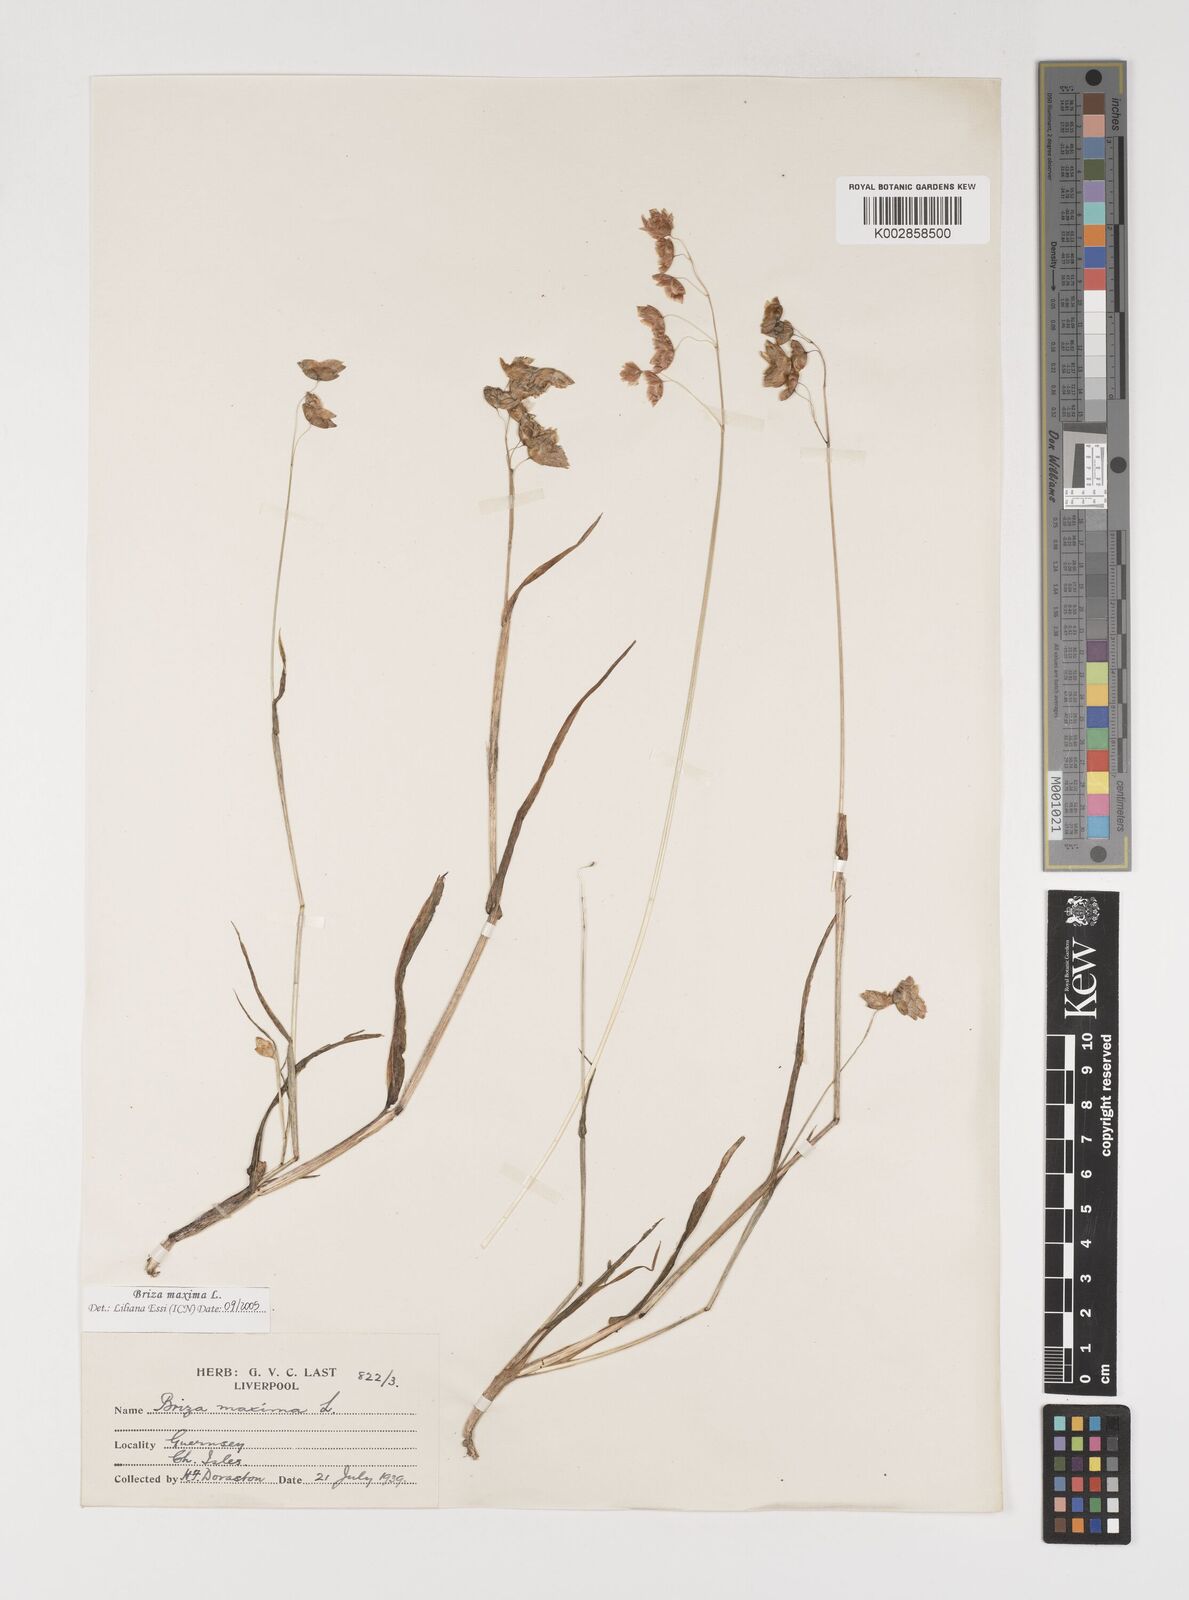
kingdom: Plantae
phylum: Tracheophyta
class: Liliopsida
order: Poales
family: Poaceae
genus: Briza
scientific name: Briza maxima
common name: Big quakinggrass
